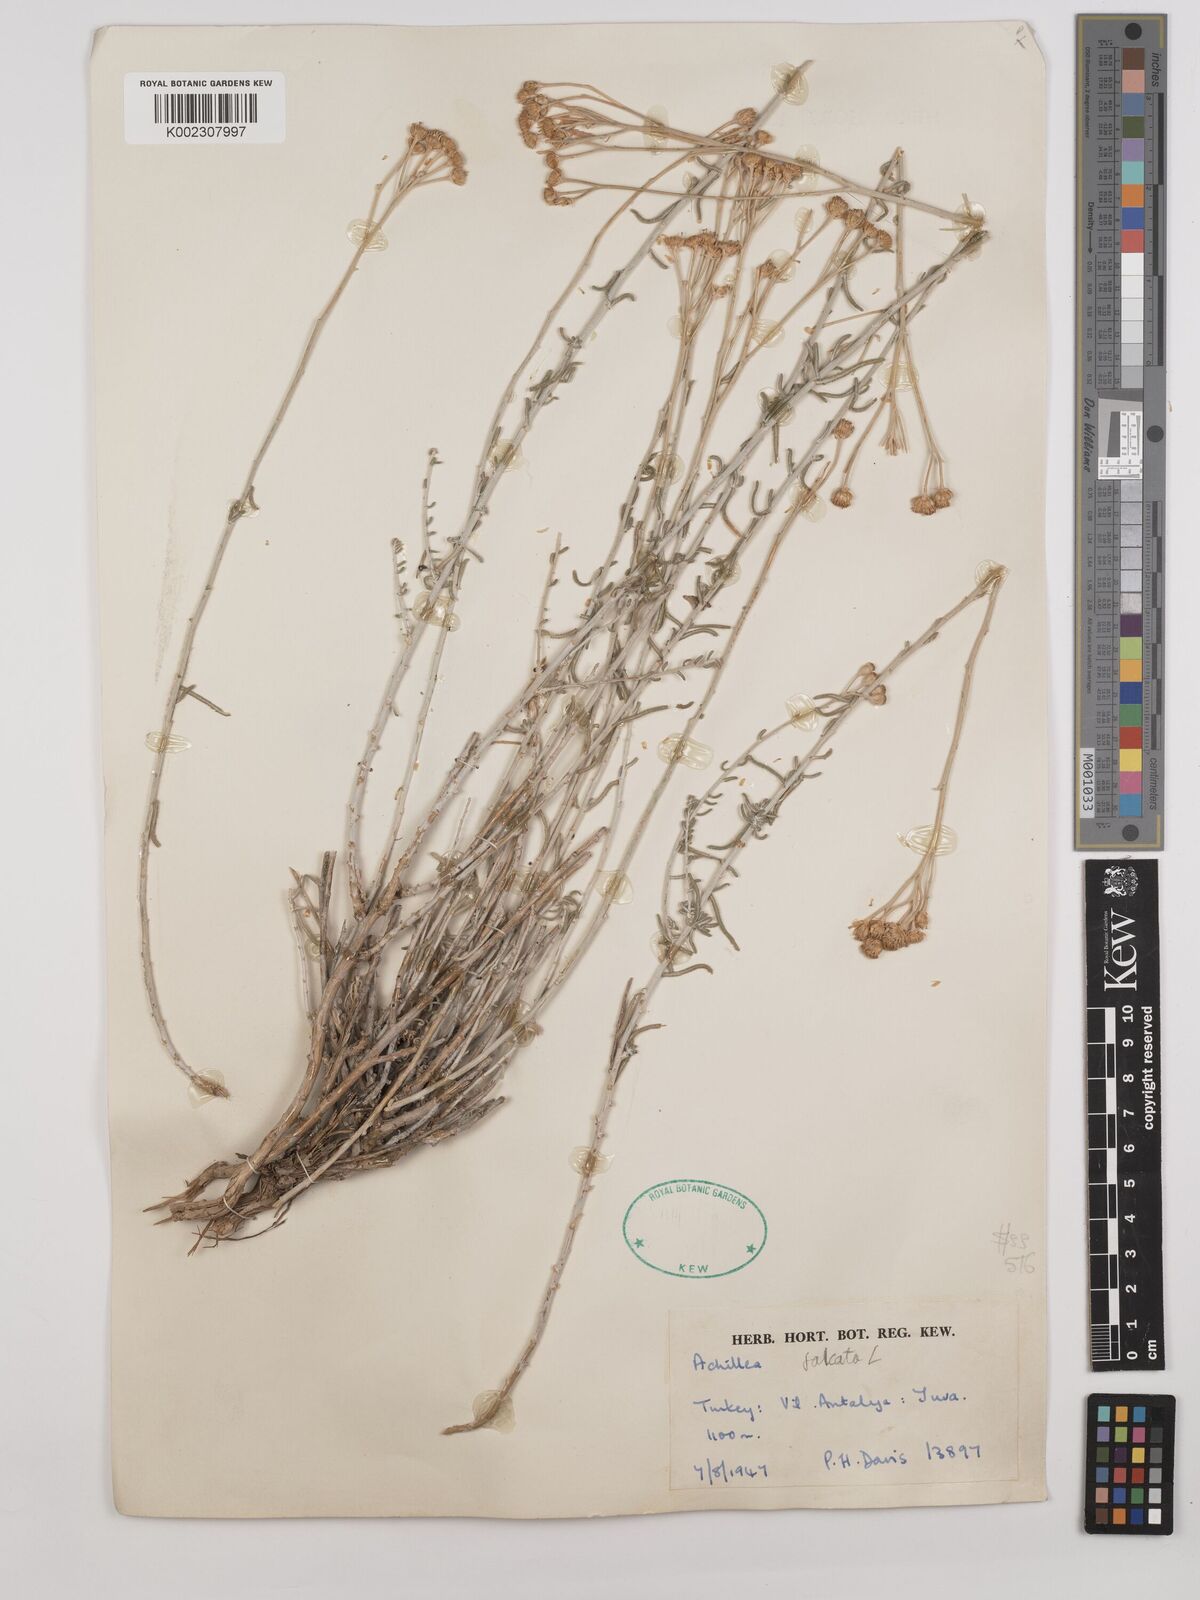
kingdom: Plantae
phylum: Tracheophyta
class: Magnoliopsida
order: Asterales
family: Asteraceae
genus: Achillea
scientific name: Achillea chamaemelifolia
